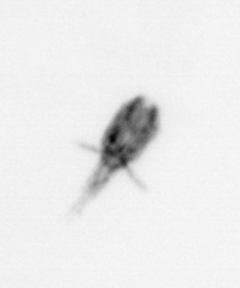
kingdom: Animalia
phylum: Arthropoda
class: Copepoda
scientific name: Copepoda
